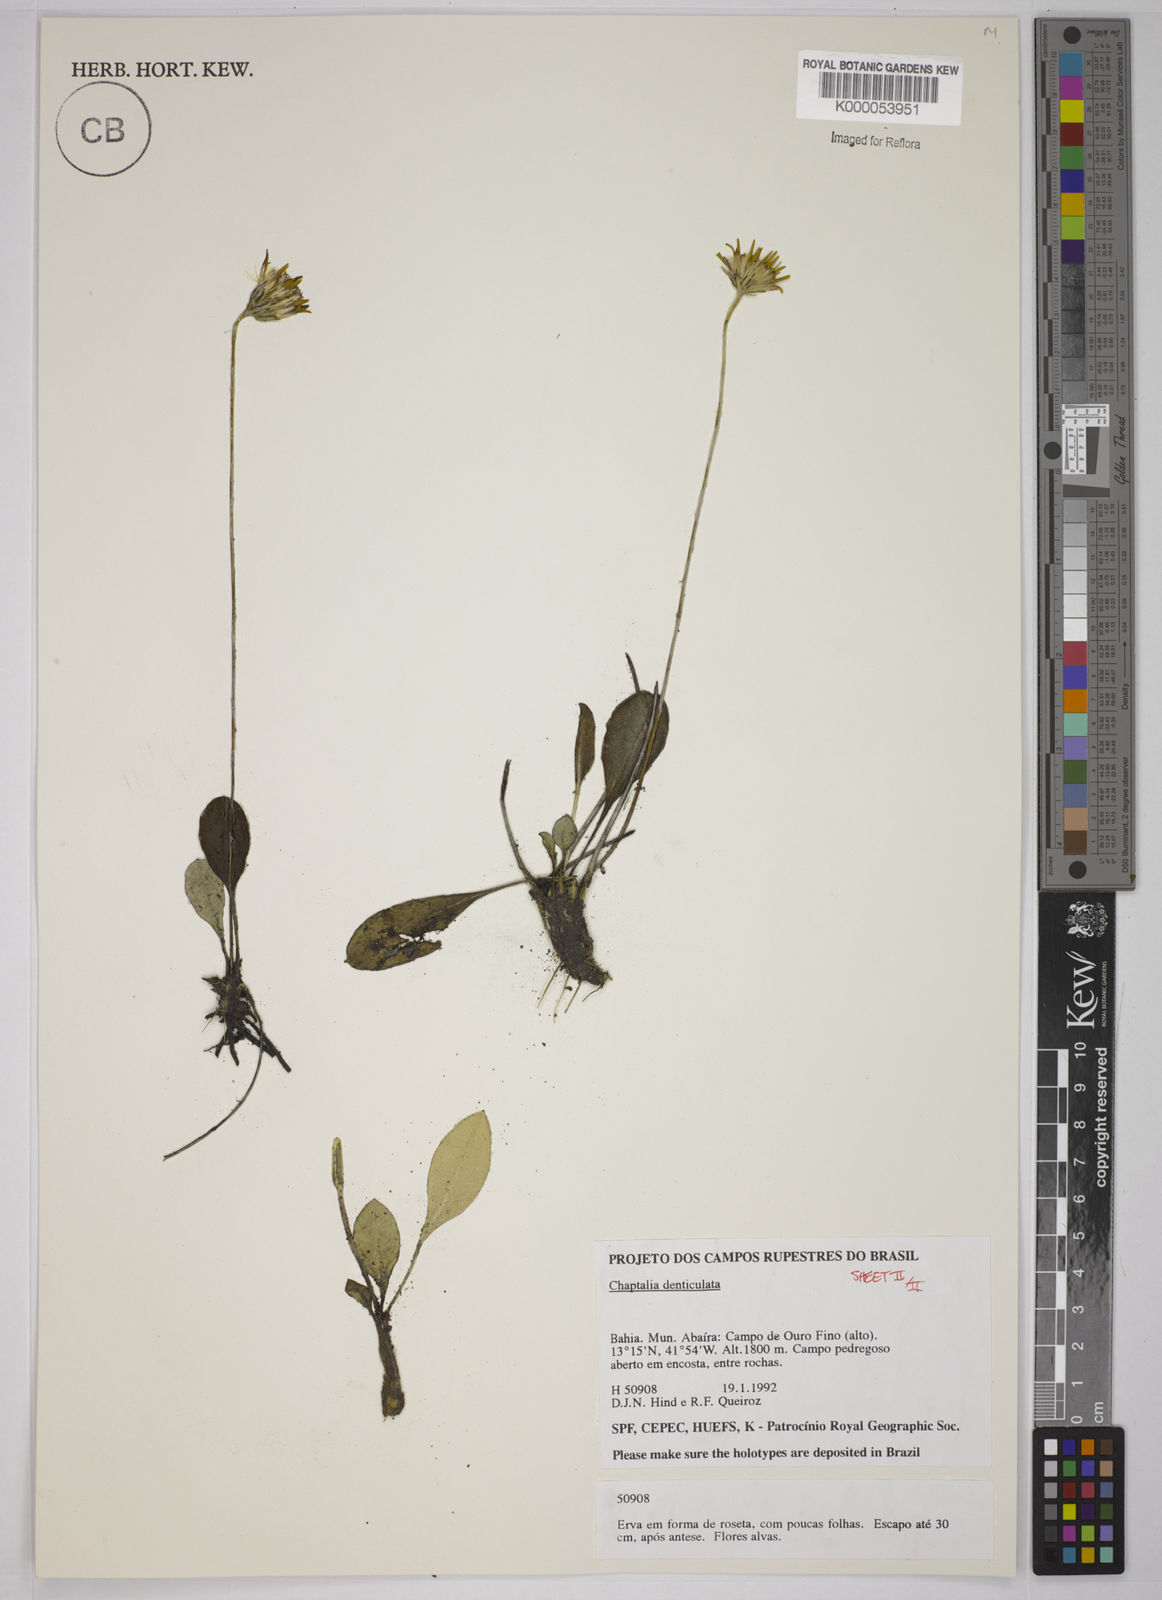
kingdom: Plantae
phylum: Tracheophyta
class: Magnoliopsida
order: Asterales
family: Asteraceae
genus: Chaptalia
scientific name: Chaptalia denticulata
